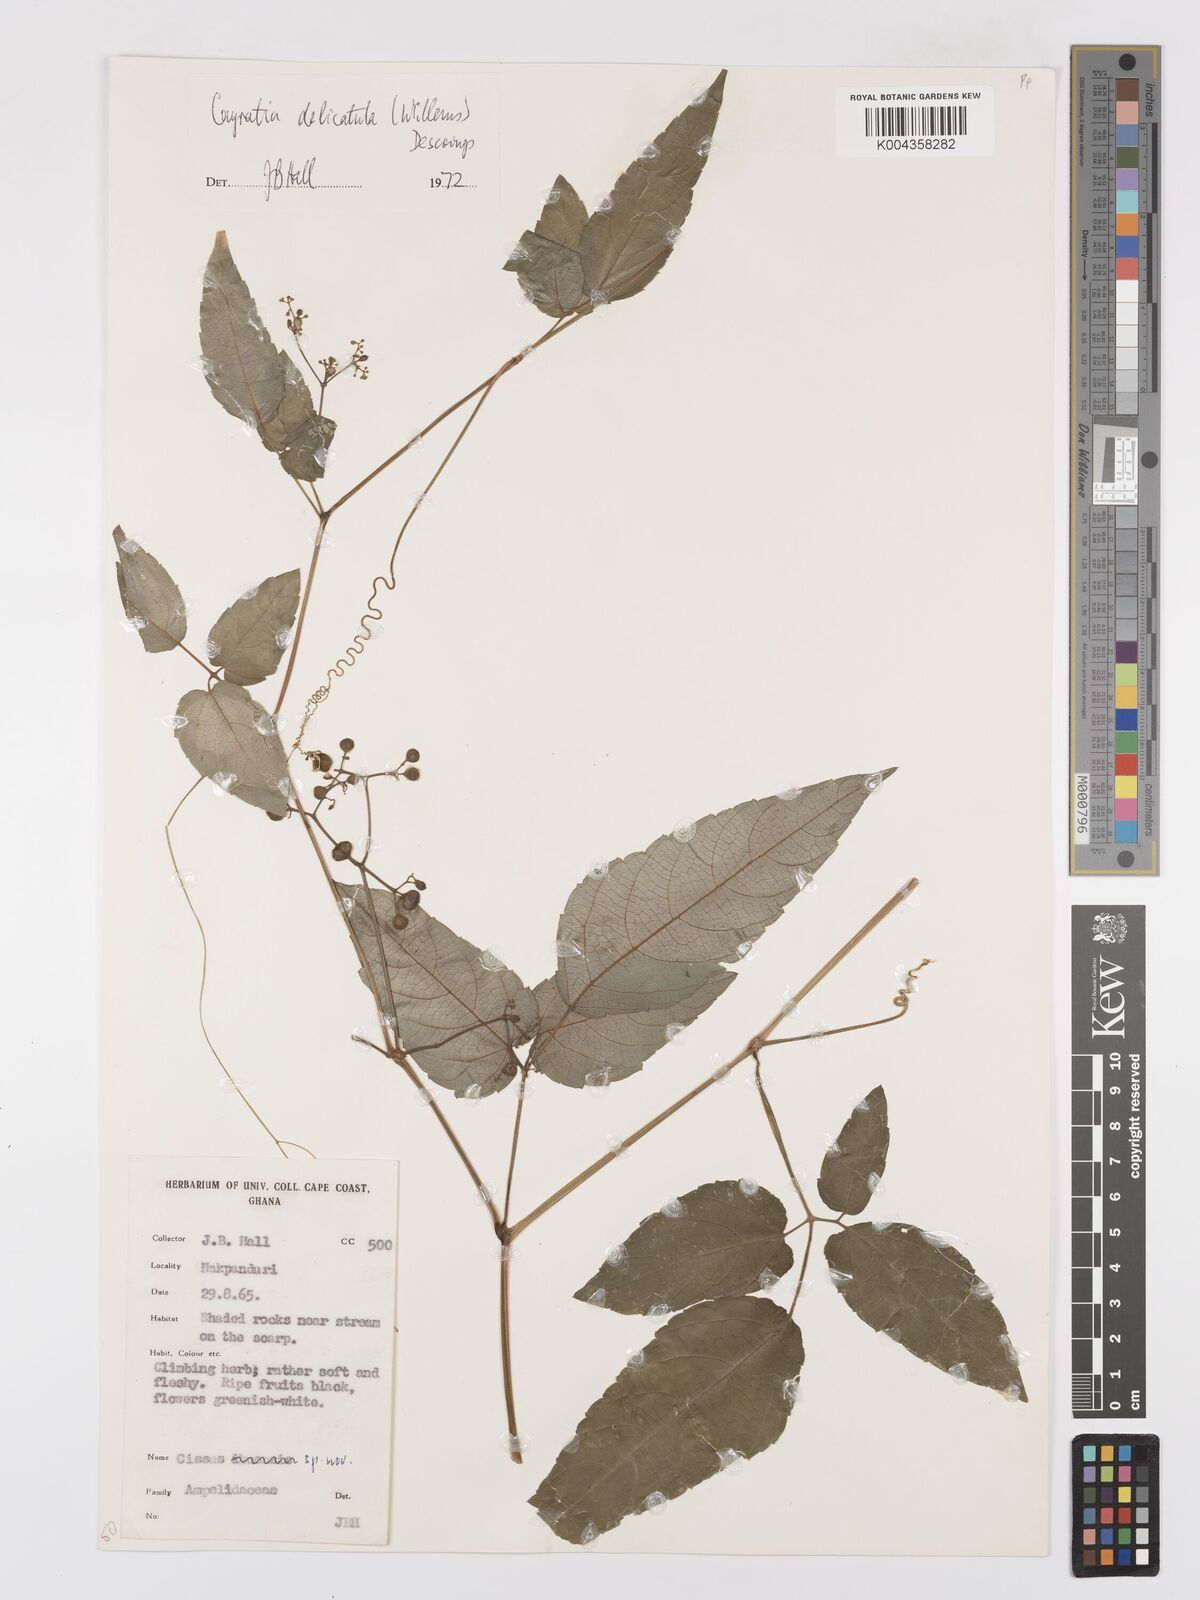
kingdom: Plantae
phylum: Tracheophyta
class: Magnoliopsida
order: Vitales
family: Vitaceae
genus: Afrocayratia
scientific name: Afrocayratia delicatula
